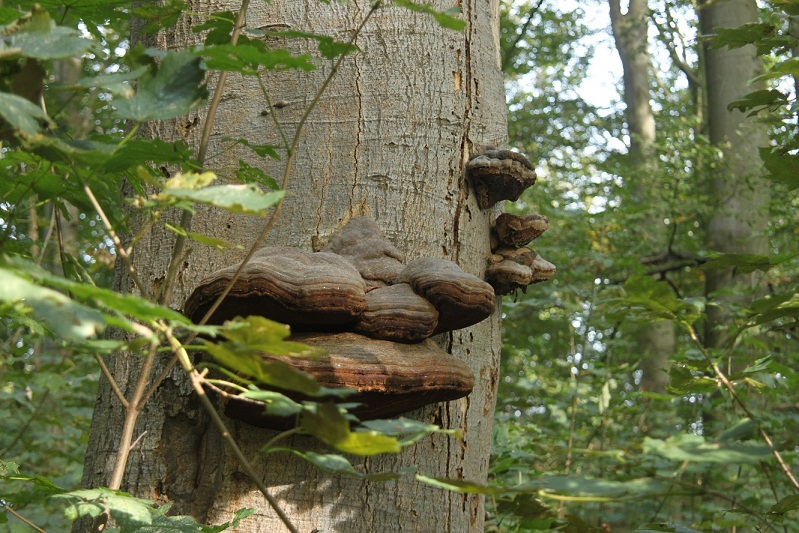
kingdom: Fungi
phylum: Basidiomycota
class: Agaricomycetes
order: Polyporales
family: Polyporaceae
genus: Fomes
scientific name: Fomes fomentarius
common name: tøndersvamp
